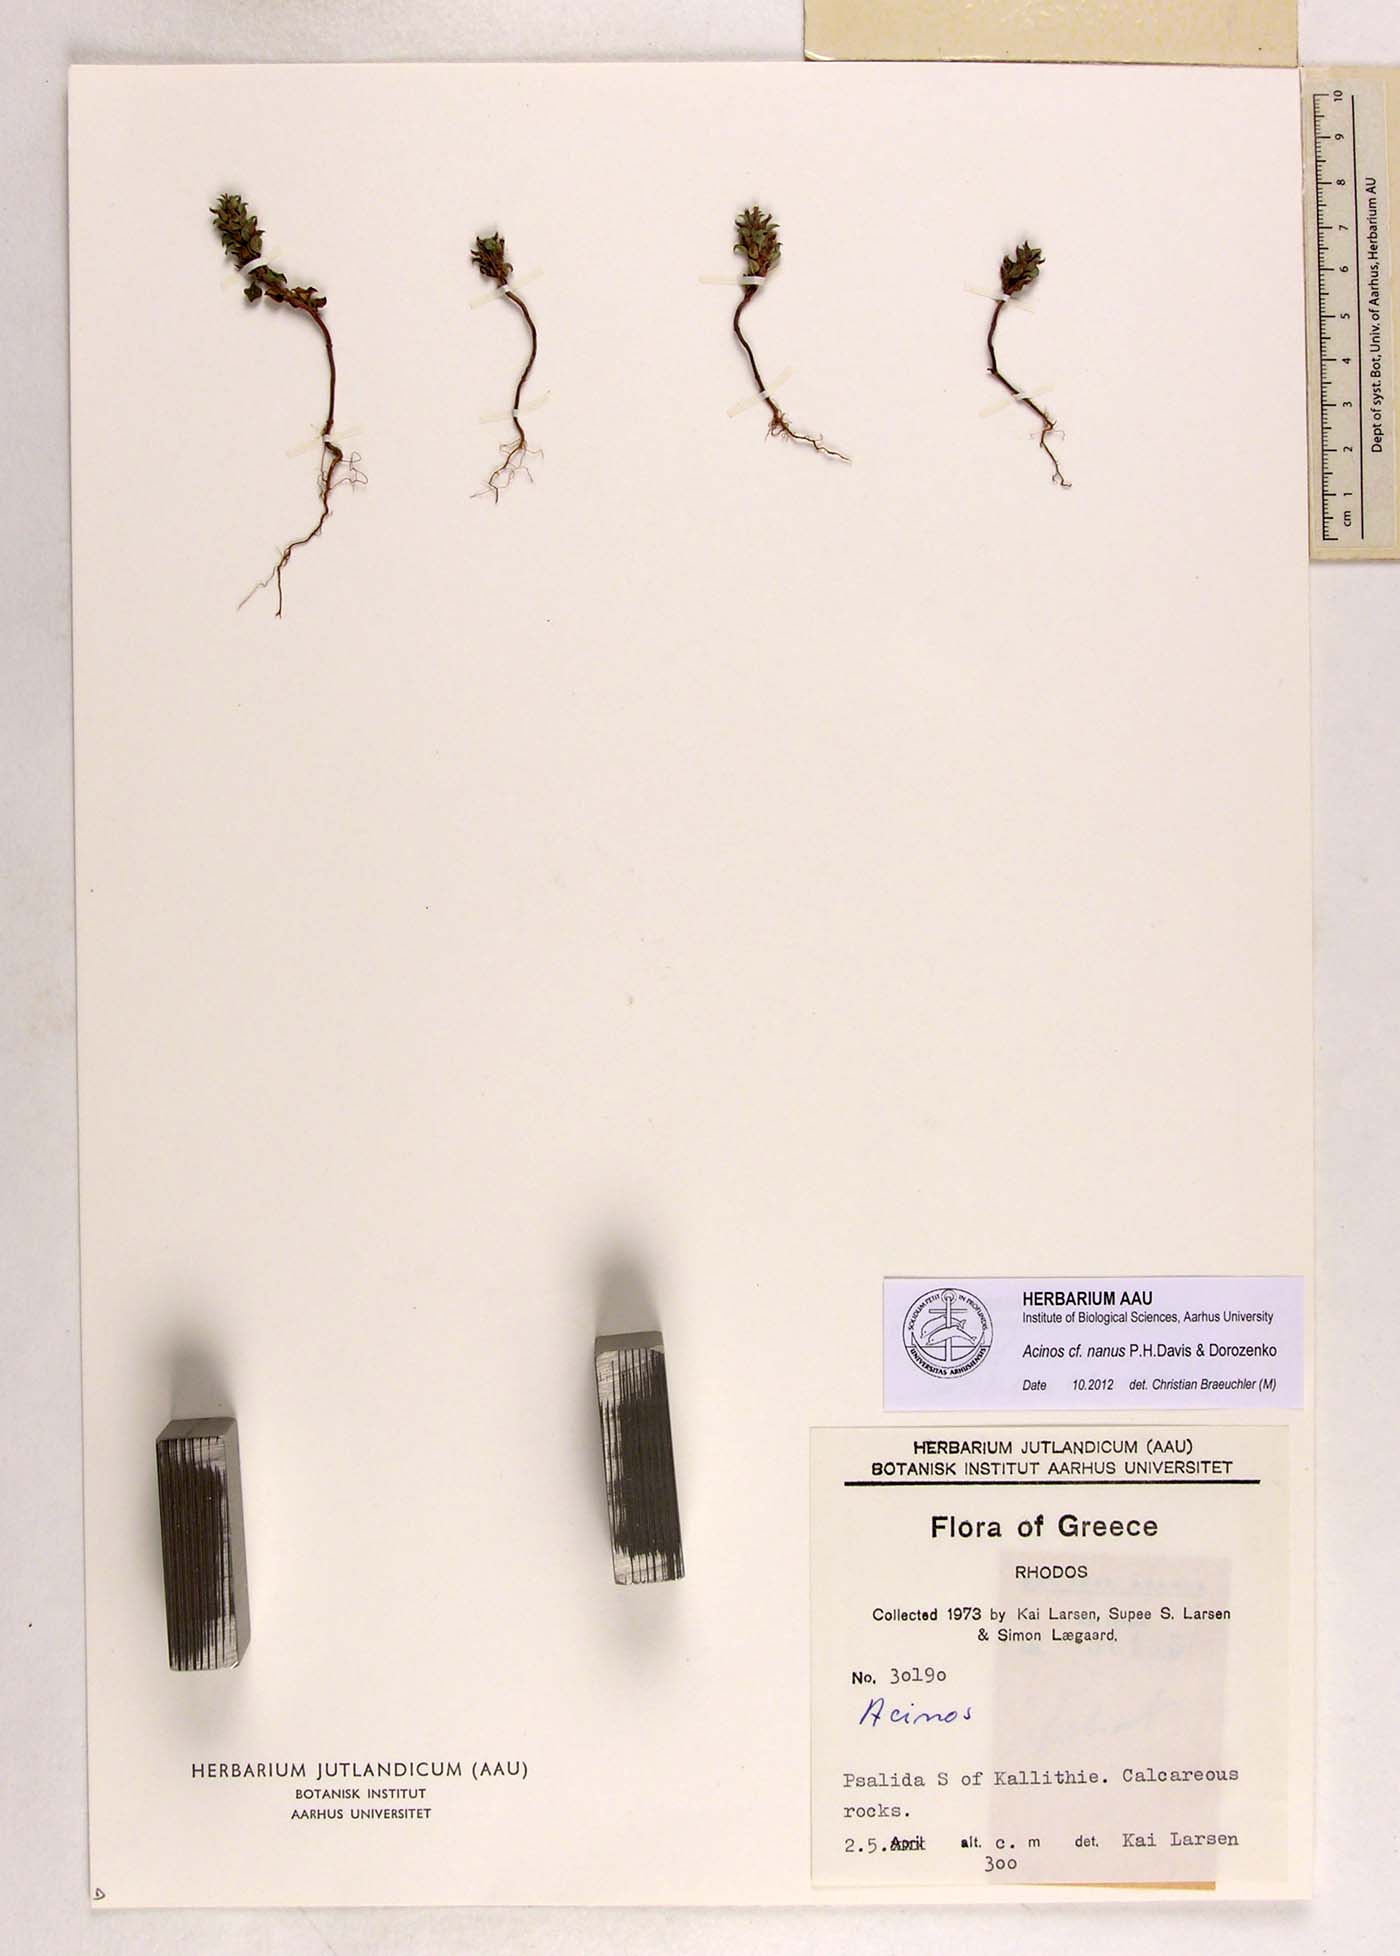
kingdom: Plantae
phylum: Tracheophyta
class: Magnoliopsida
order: Lamiales
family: Lamiaceae
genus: Clinopodium
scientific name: Clinopodium nanum
